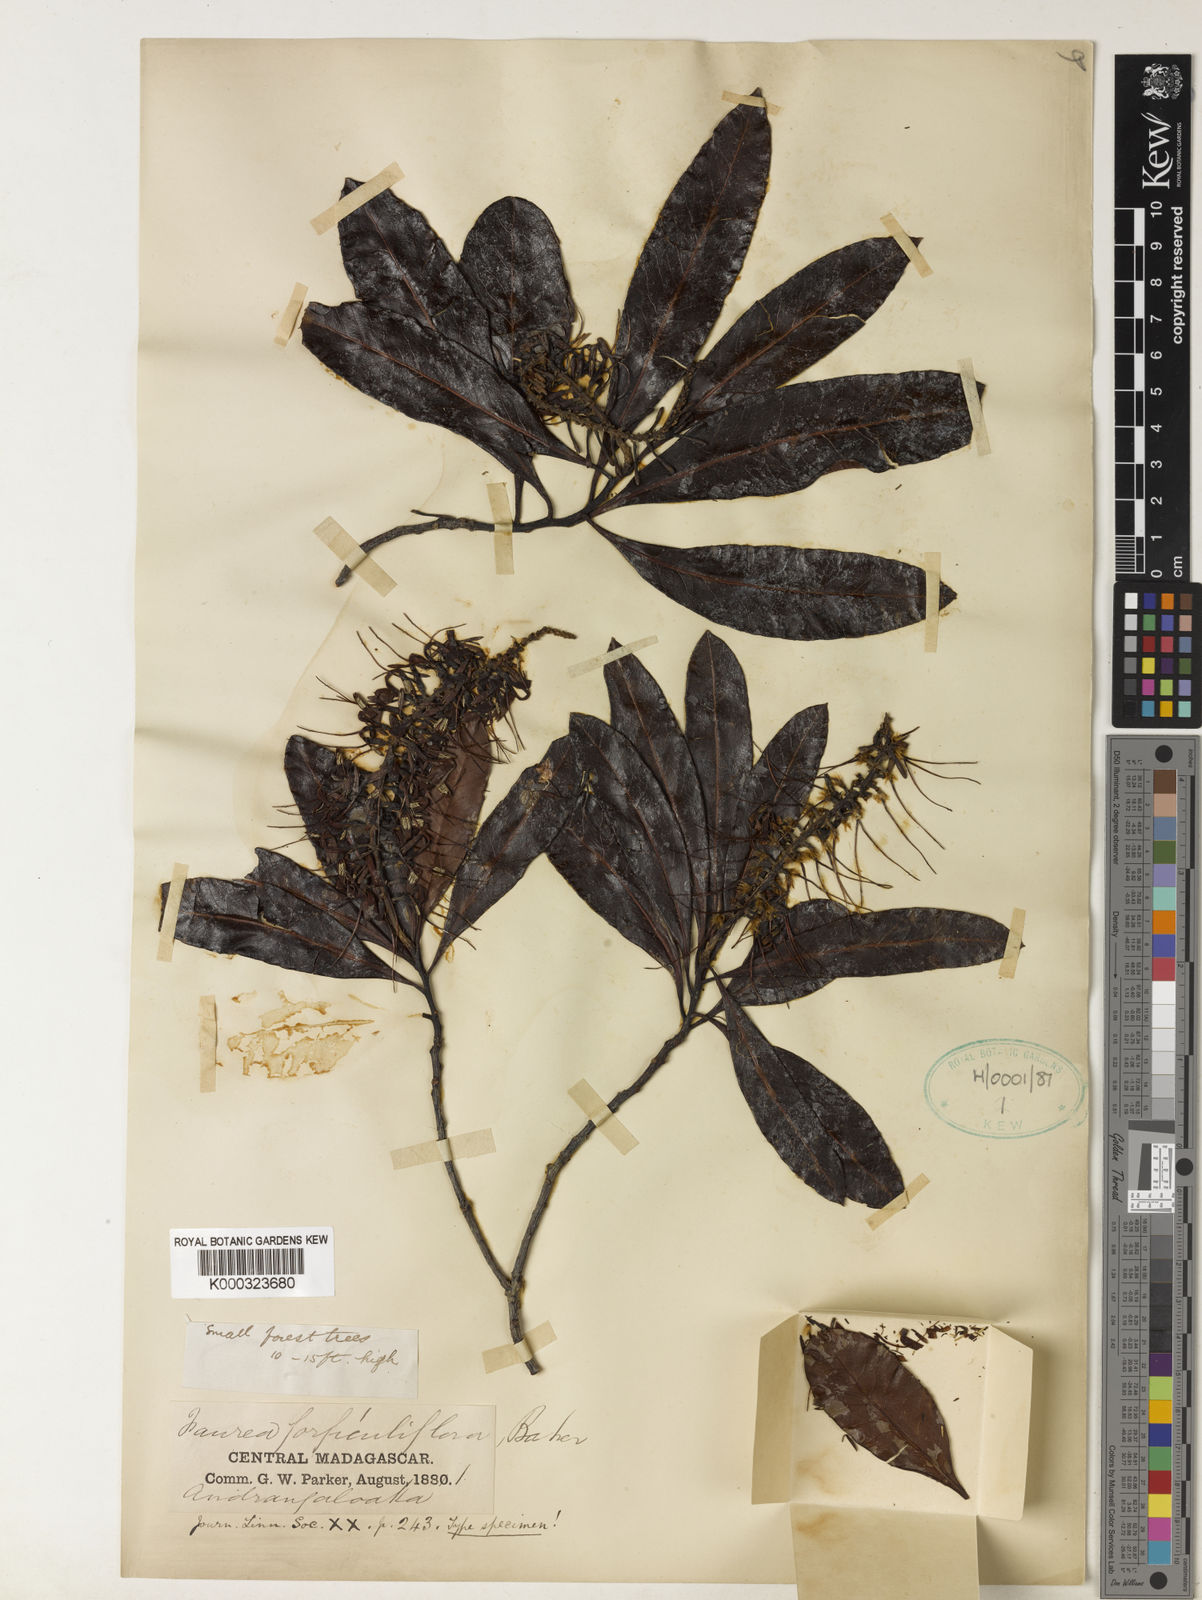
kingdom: Plantae
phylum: Tracheophyta
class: Magnoliopsida
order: Proteales
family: Proteaceae
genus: Faurea
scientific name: Faurea forficuliflora
